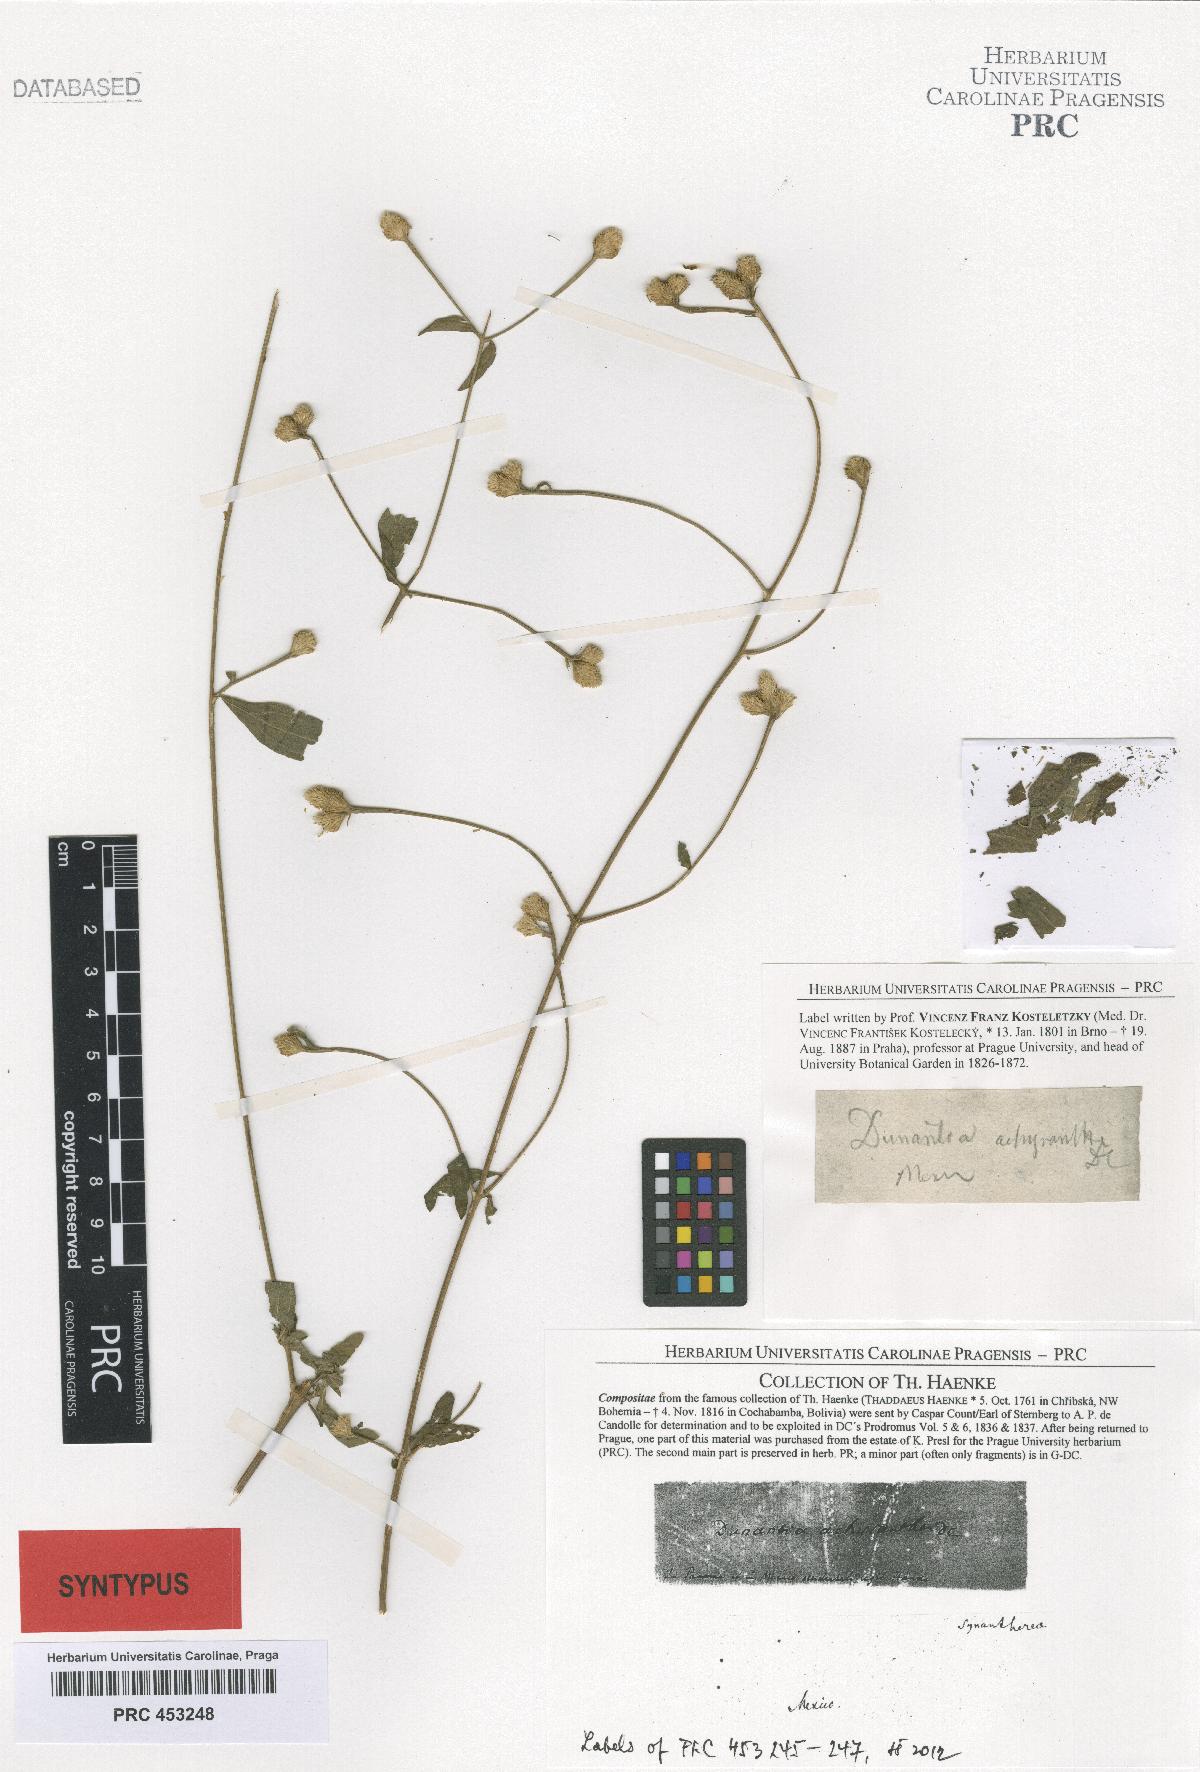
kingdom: Plantae
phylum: Tracheophyta
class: Magnoliopsida
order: Asterales
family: Asteraceae
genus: Isocarpha
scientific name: Isocarpha oppositifolia
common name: Rio grande pearlhead
